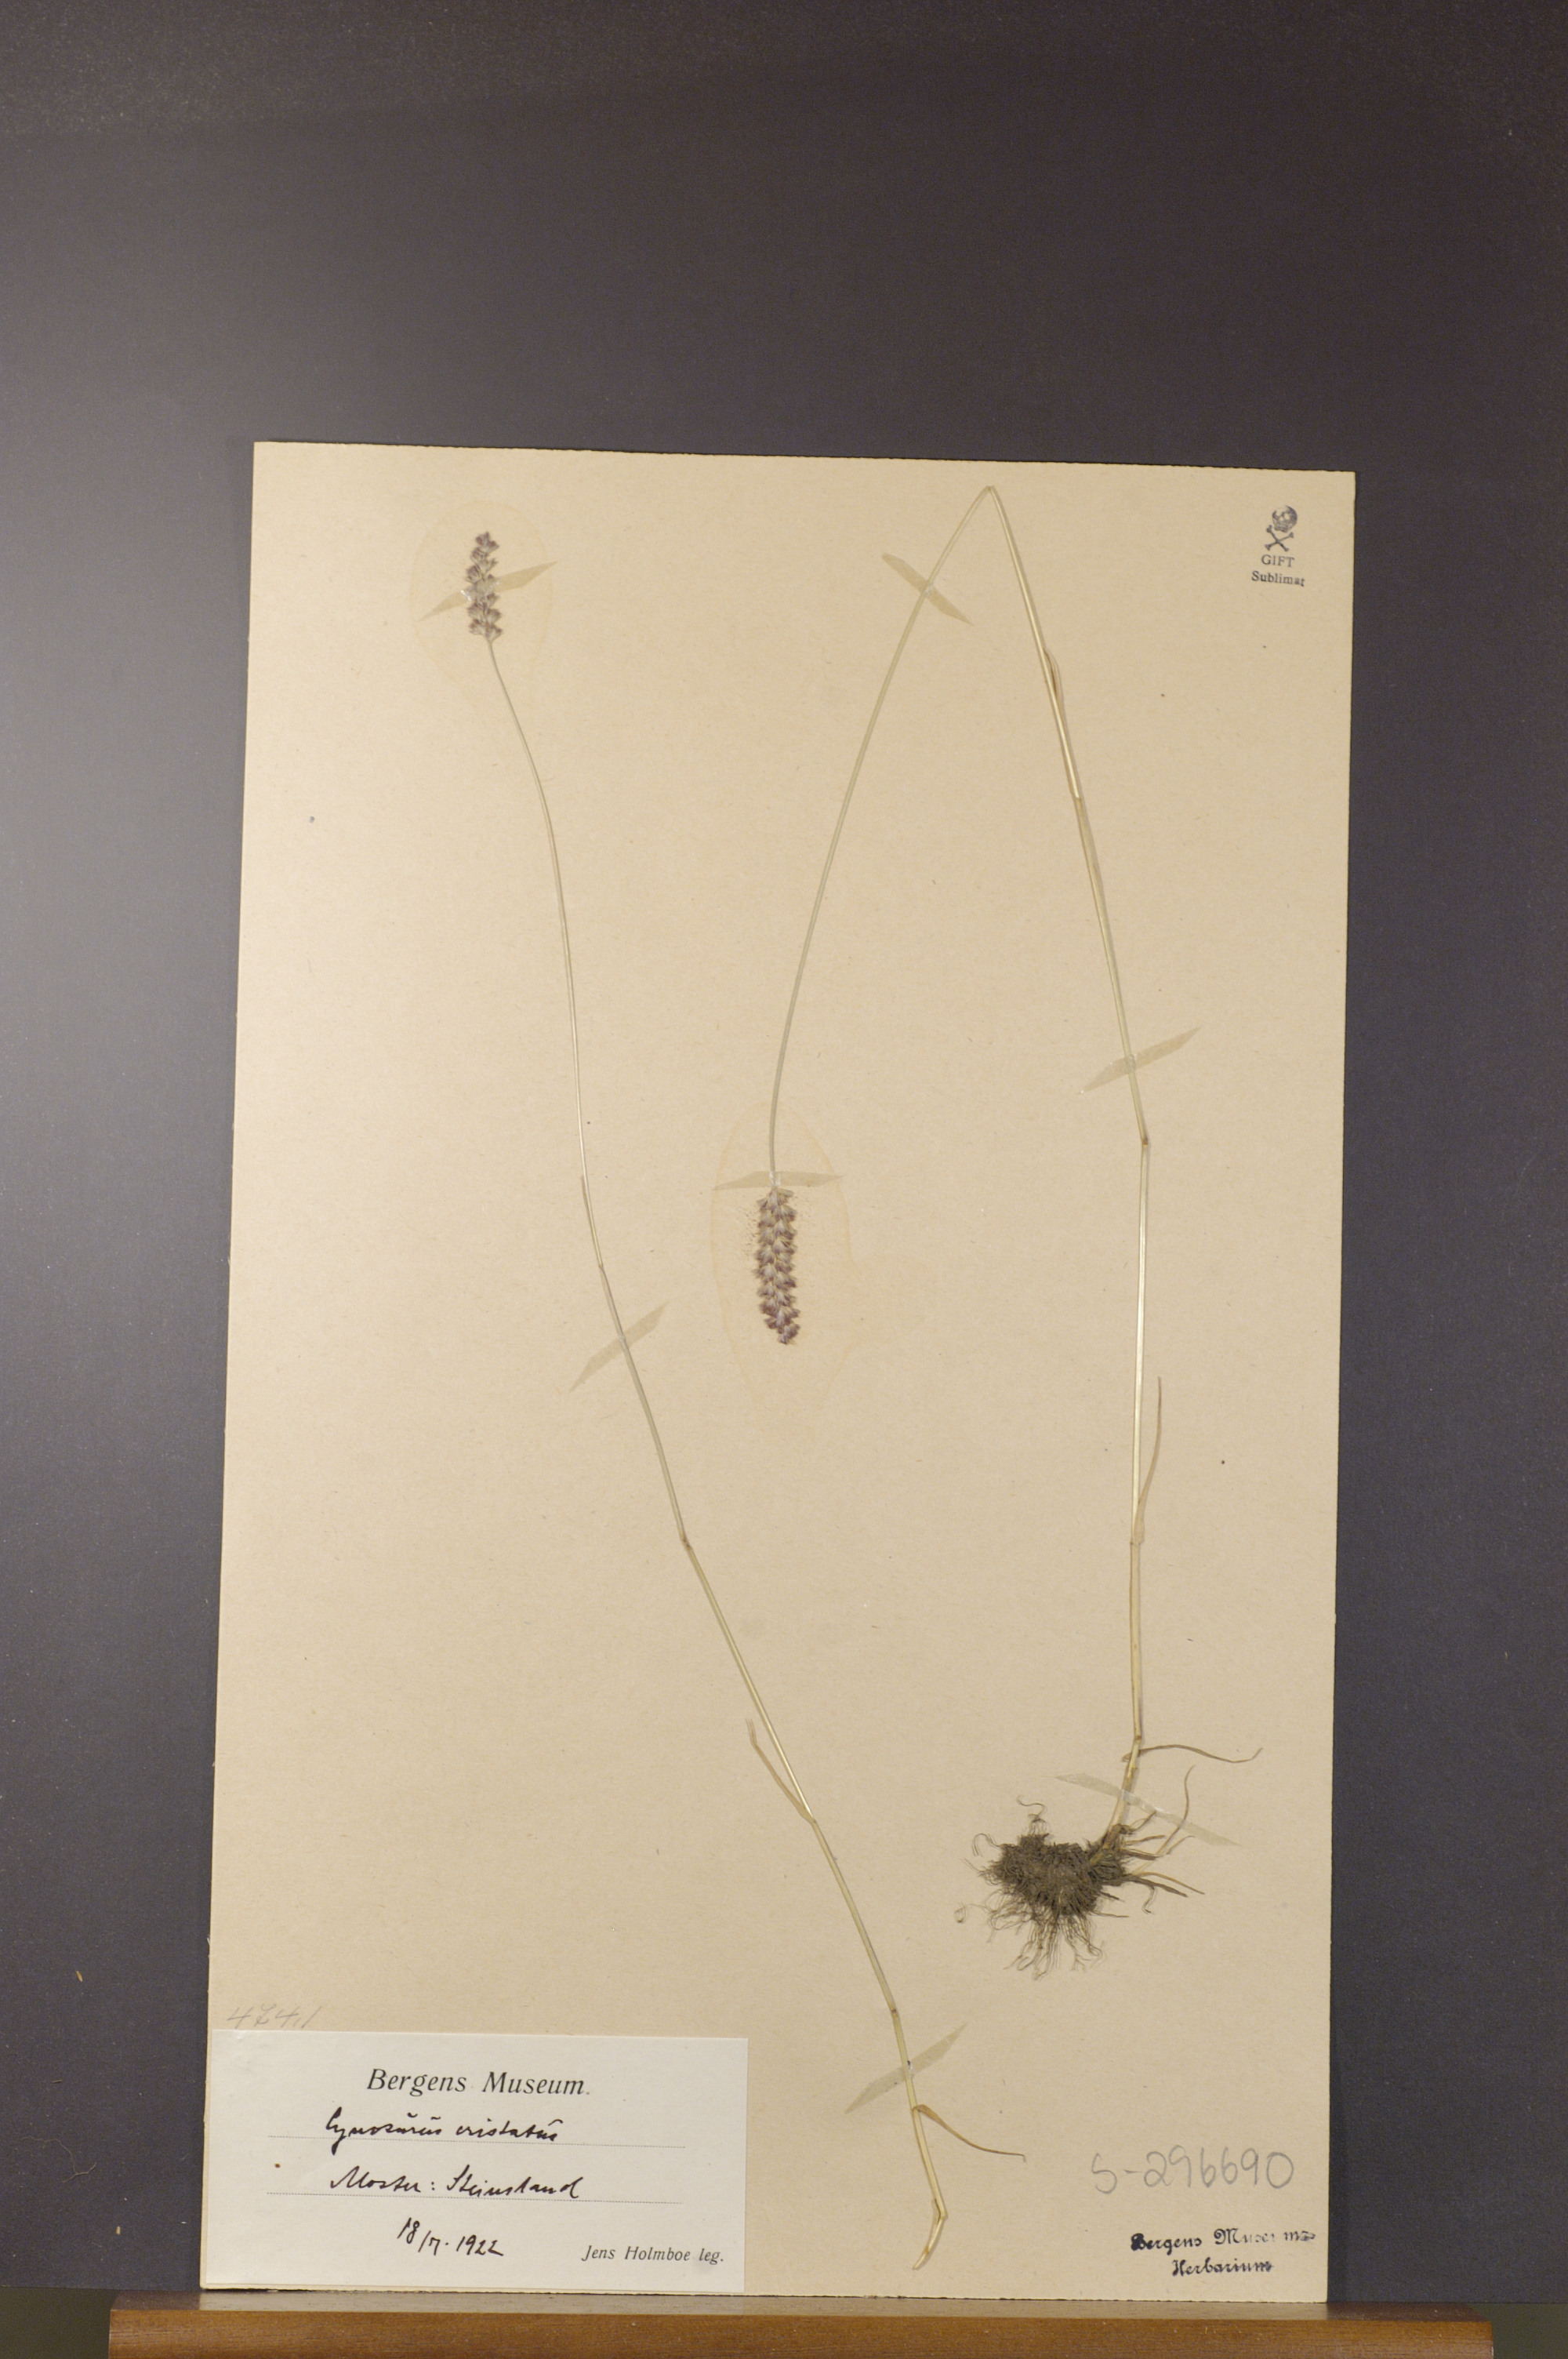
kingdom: Plantae
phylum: Tracheophyta
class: Liliopsida
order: Poales
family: Poaceae
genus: Cynosurus
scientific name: Cynosurus cristatus
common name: Crested dog's-tail
